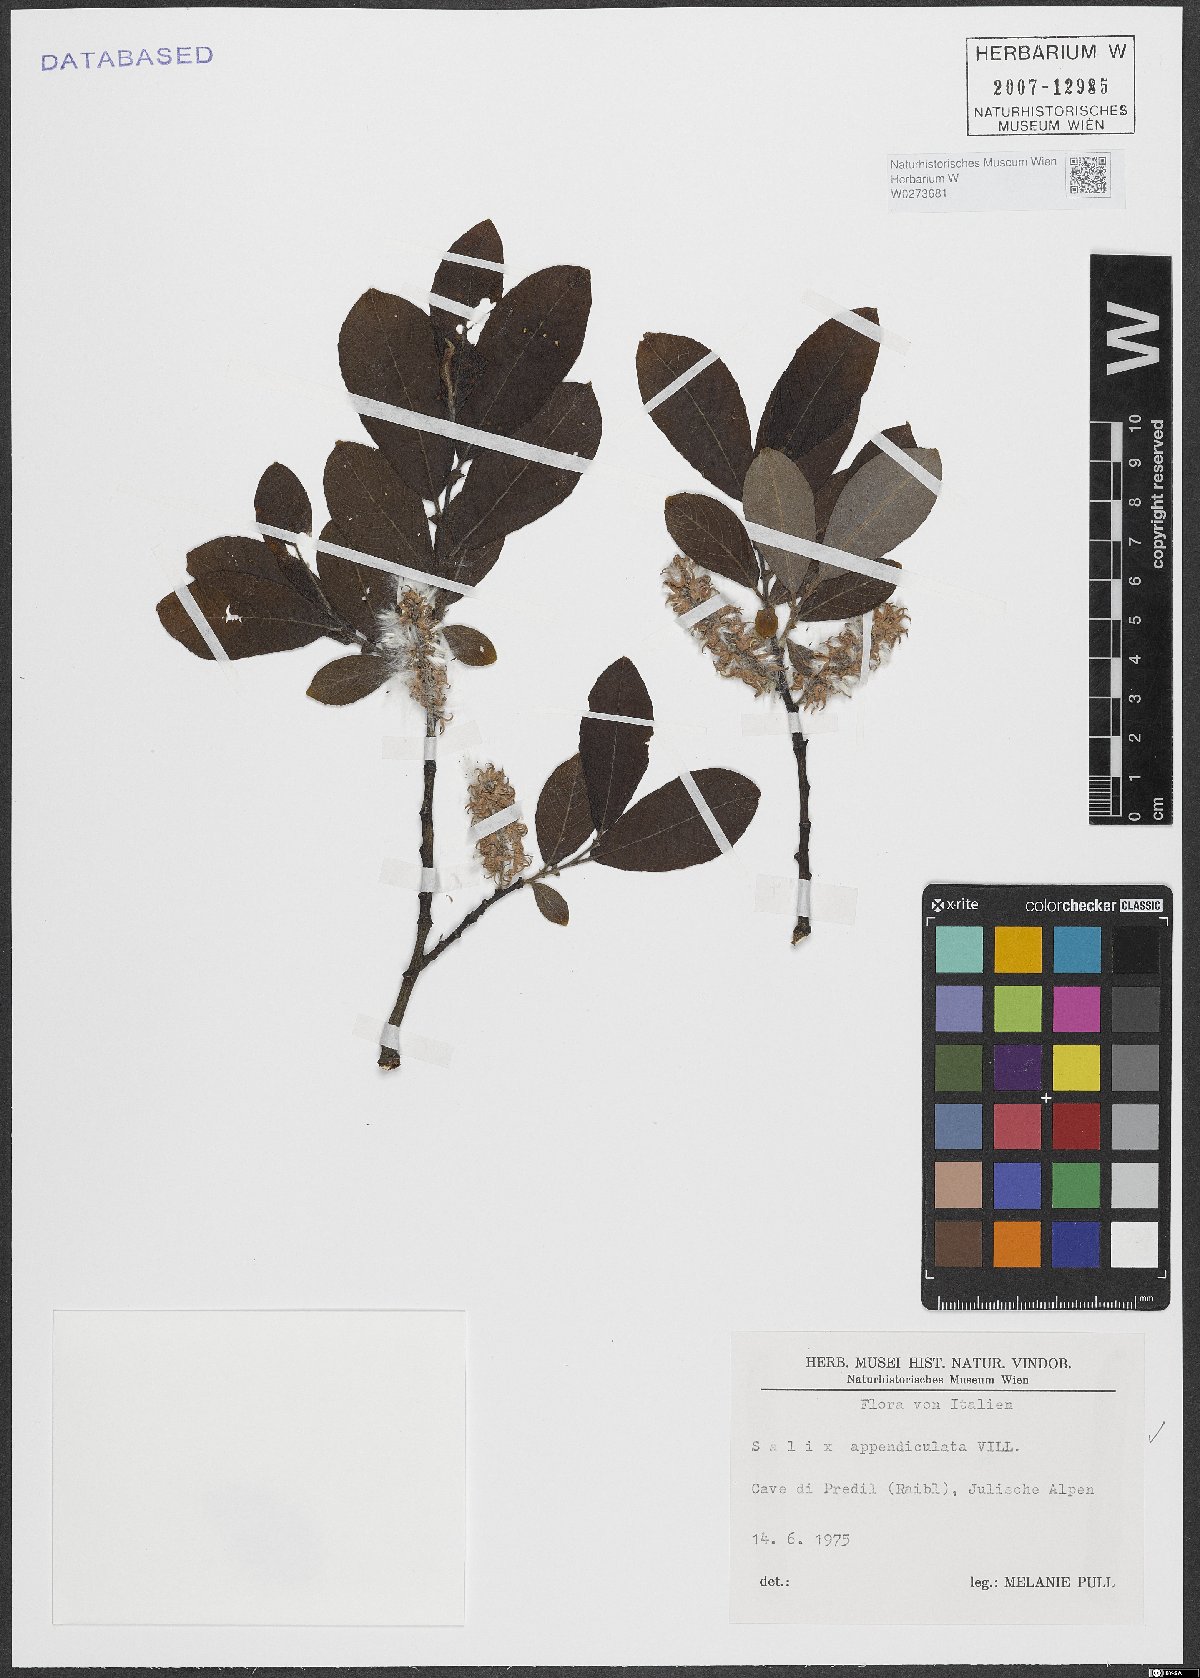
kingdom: Plantae
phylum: Tracheophyta
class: Magnoliopsida
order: Malpighiales
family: Salicaceae
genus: Salix
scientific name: Salix appendiculata
